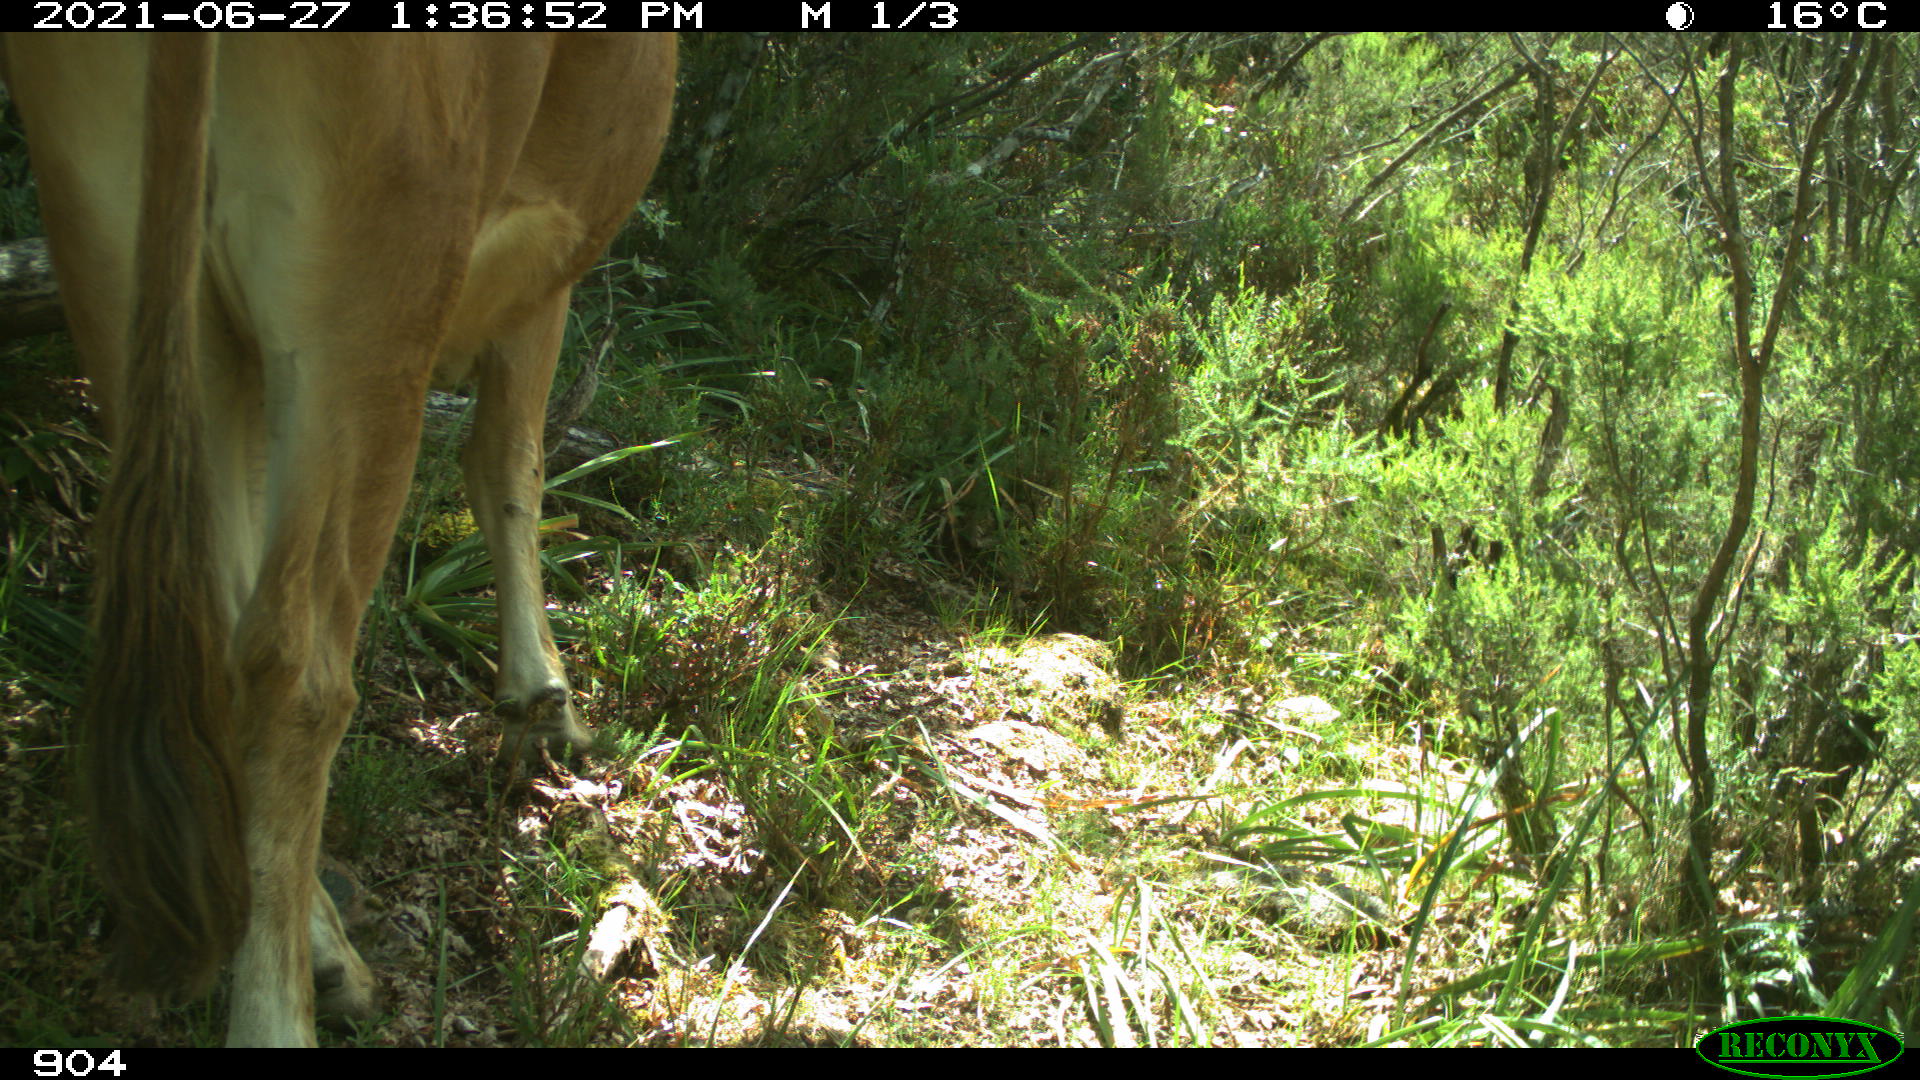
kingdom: Animalia
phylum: Chordata
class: Mammalia
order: Artiodactyla
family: Bovidae
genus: Bos
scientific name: Bos taurus
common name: Domesticated cattle
